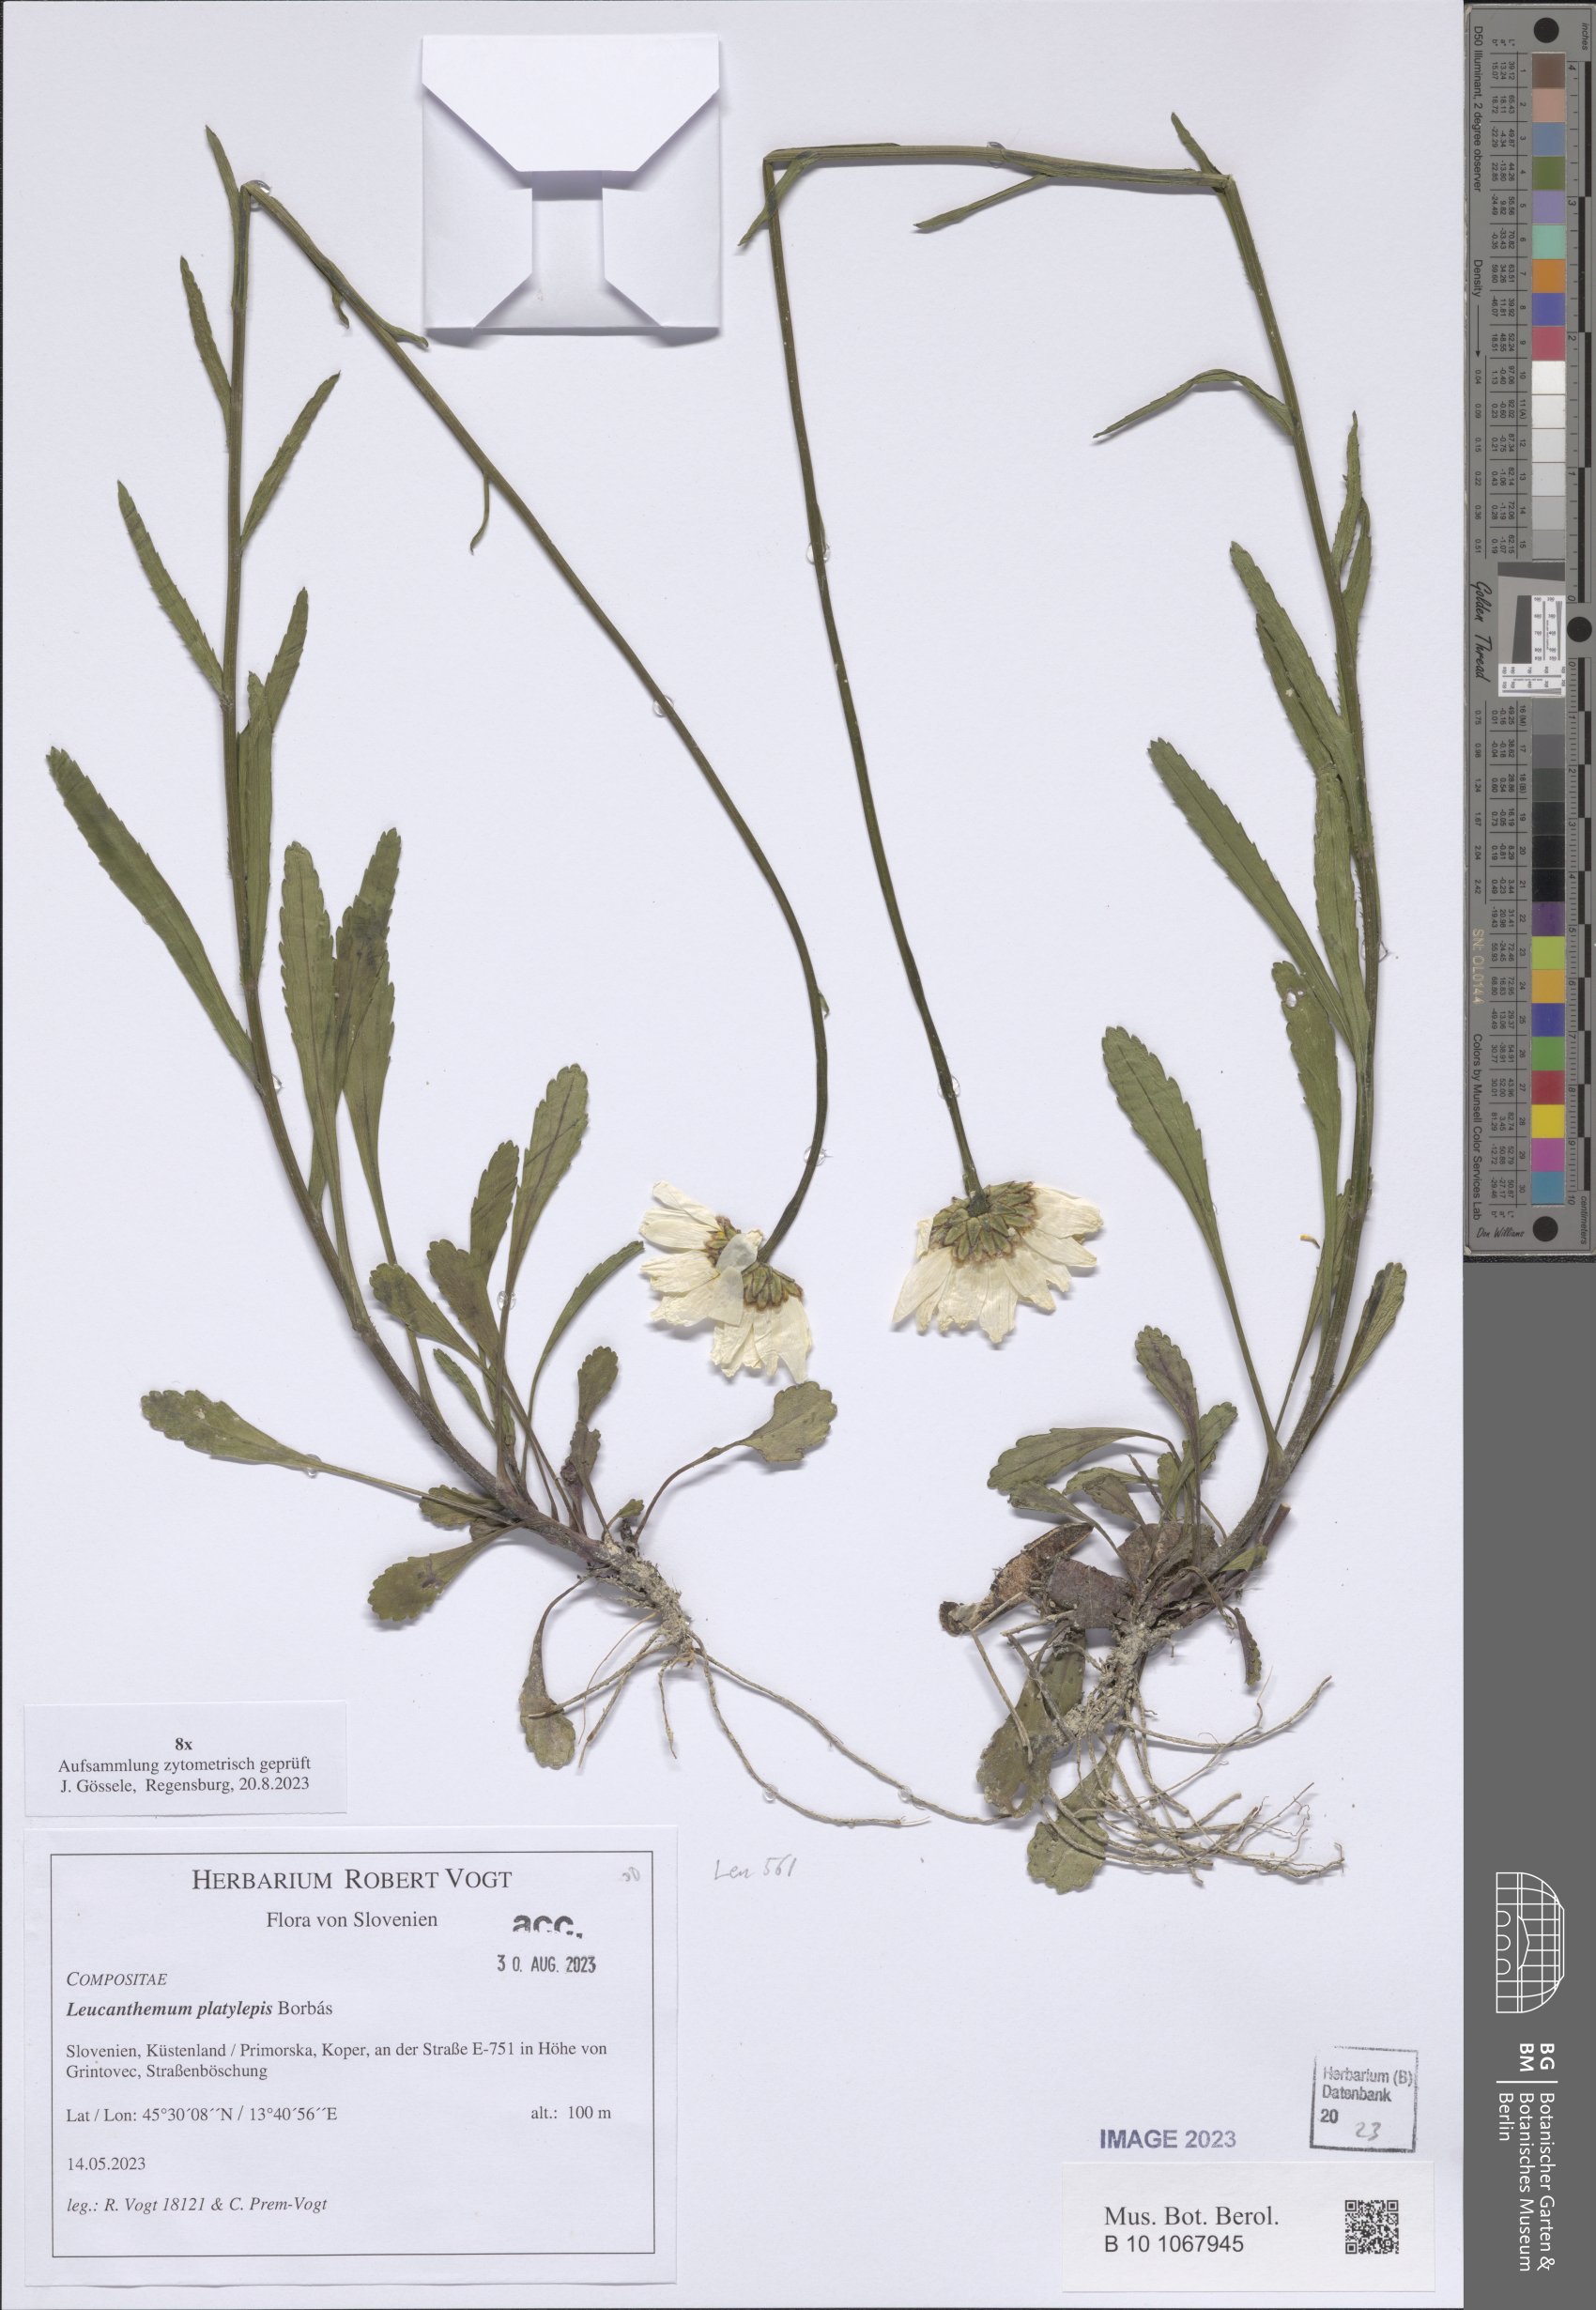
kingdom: Plantae
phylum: Tracheophyta
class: Magnoliopsida
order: Asterales
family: Asteraceae
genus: Leucanthemum
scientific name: Leucanthemum platylepis
